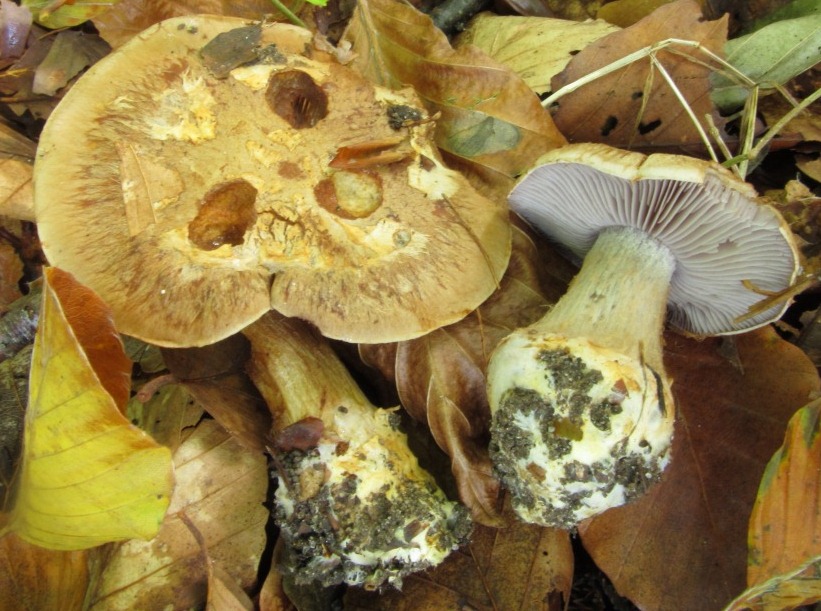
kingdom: Fungi
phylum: Basidiomycota
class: Agaricomycetes
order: Agaricales
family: Cortinariaceae
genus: Phlegmacium
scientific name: Phlegmacium luhmannii
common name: musegrå slørhat
